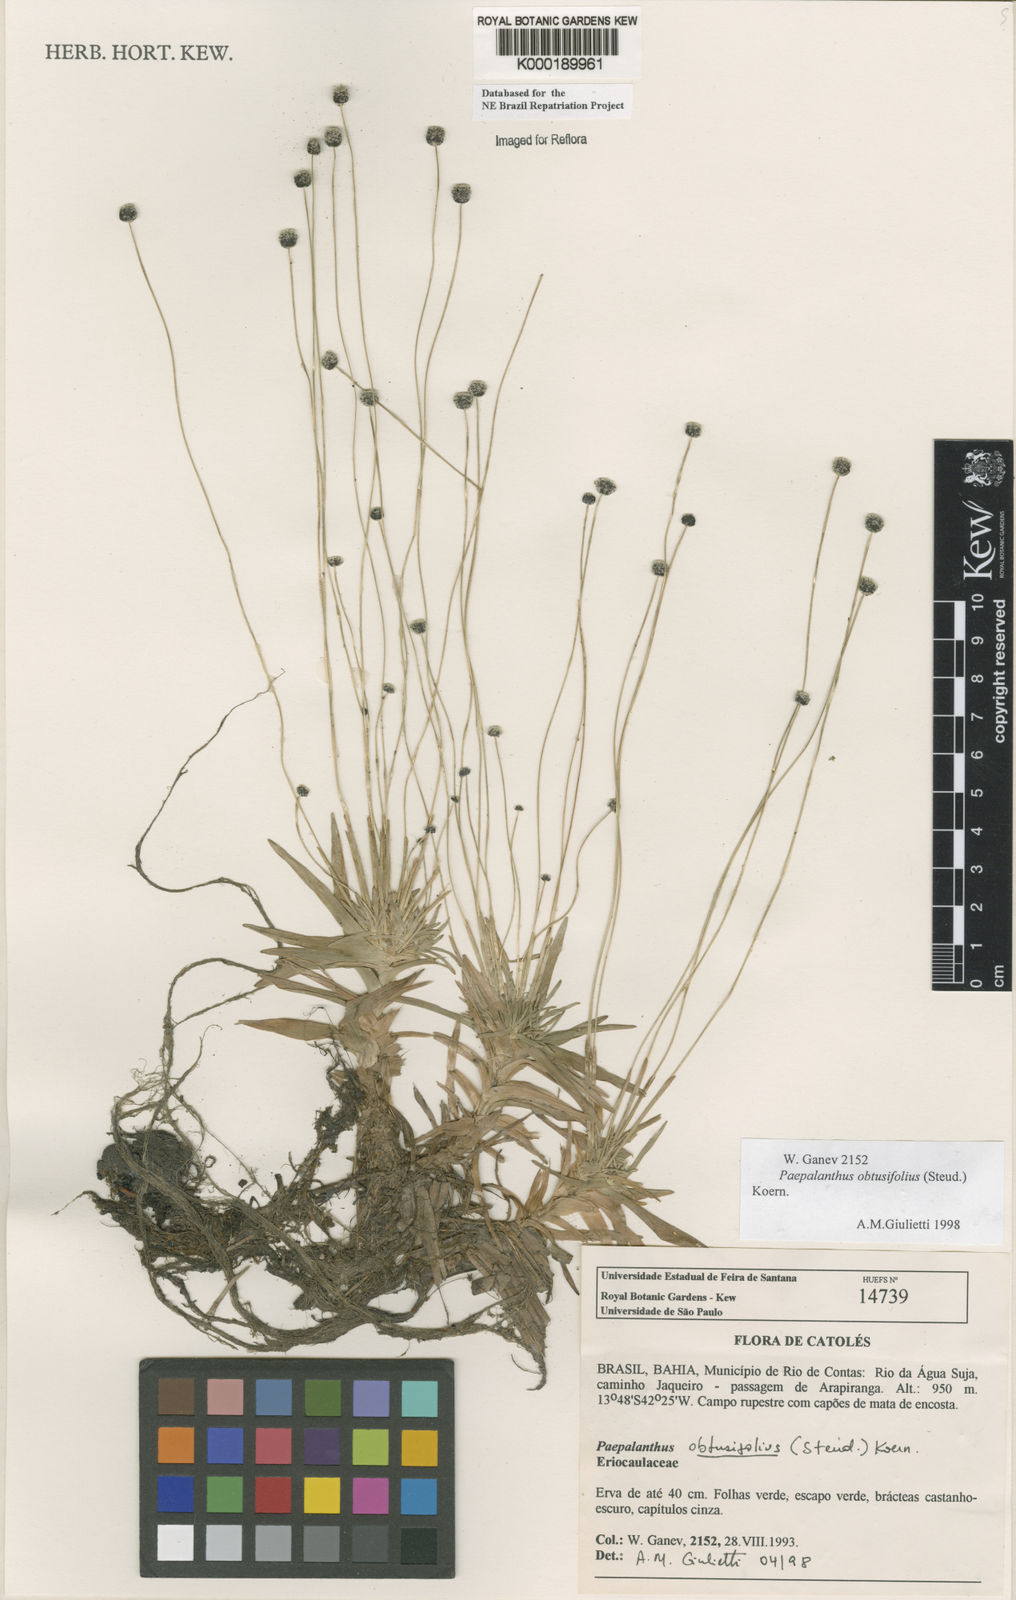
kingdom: Plantae
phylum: Tracheophyta
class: Liliopsida
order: Poales
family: Eriocaulaceae
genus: Paepalanthus
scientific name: Paepalanthus
